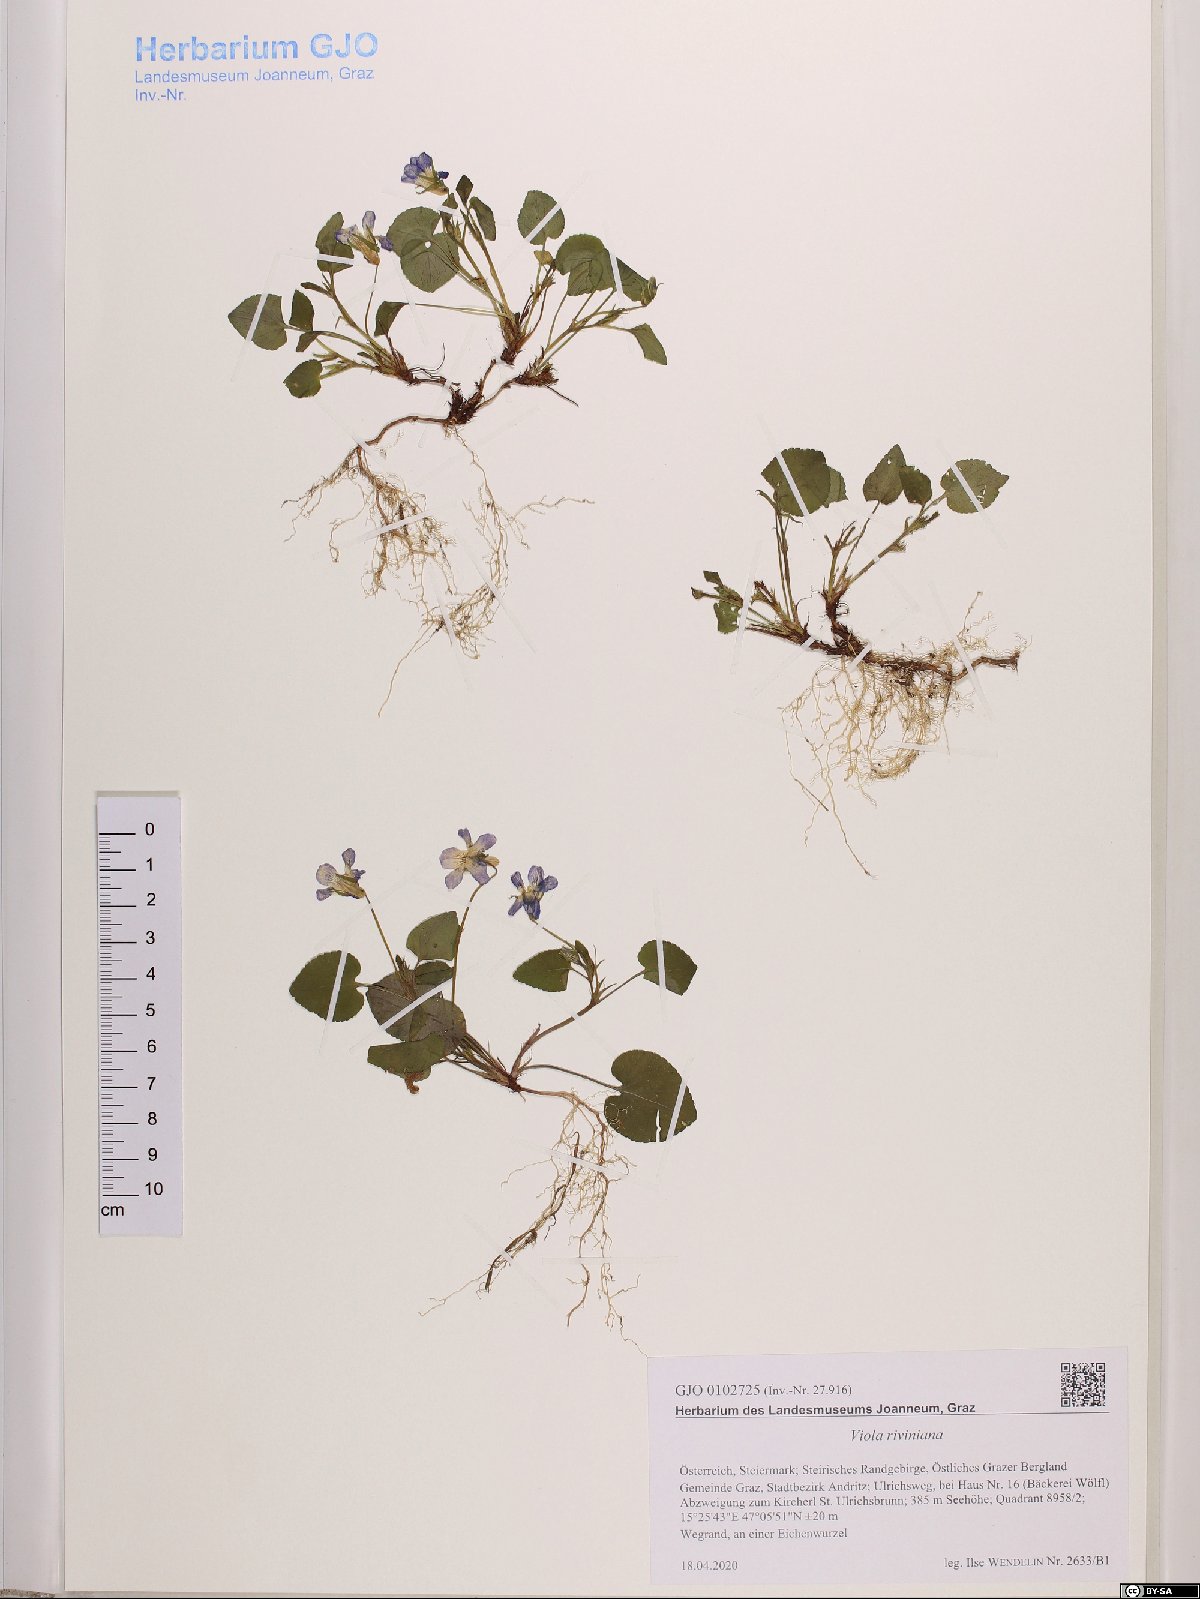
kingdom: Plantae
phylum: Tracheophyta
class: Magnoliopsida
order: Malpighiales
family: Violaceae
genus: Viola
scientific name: Viola riviniana
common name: Common dog-violet
